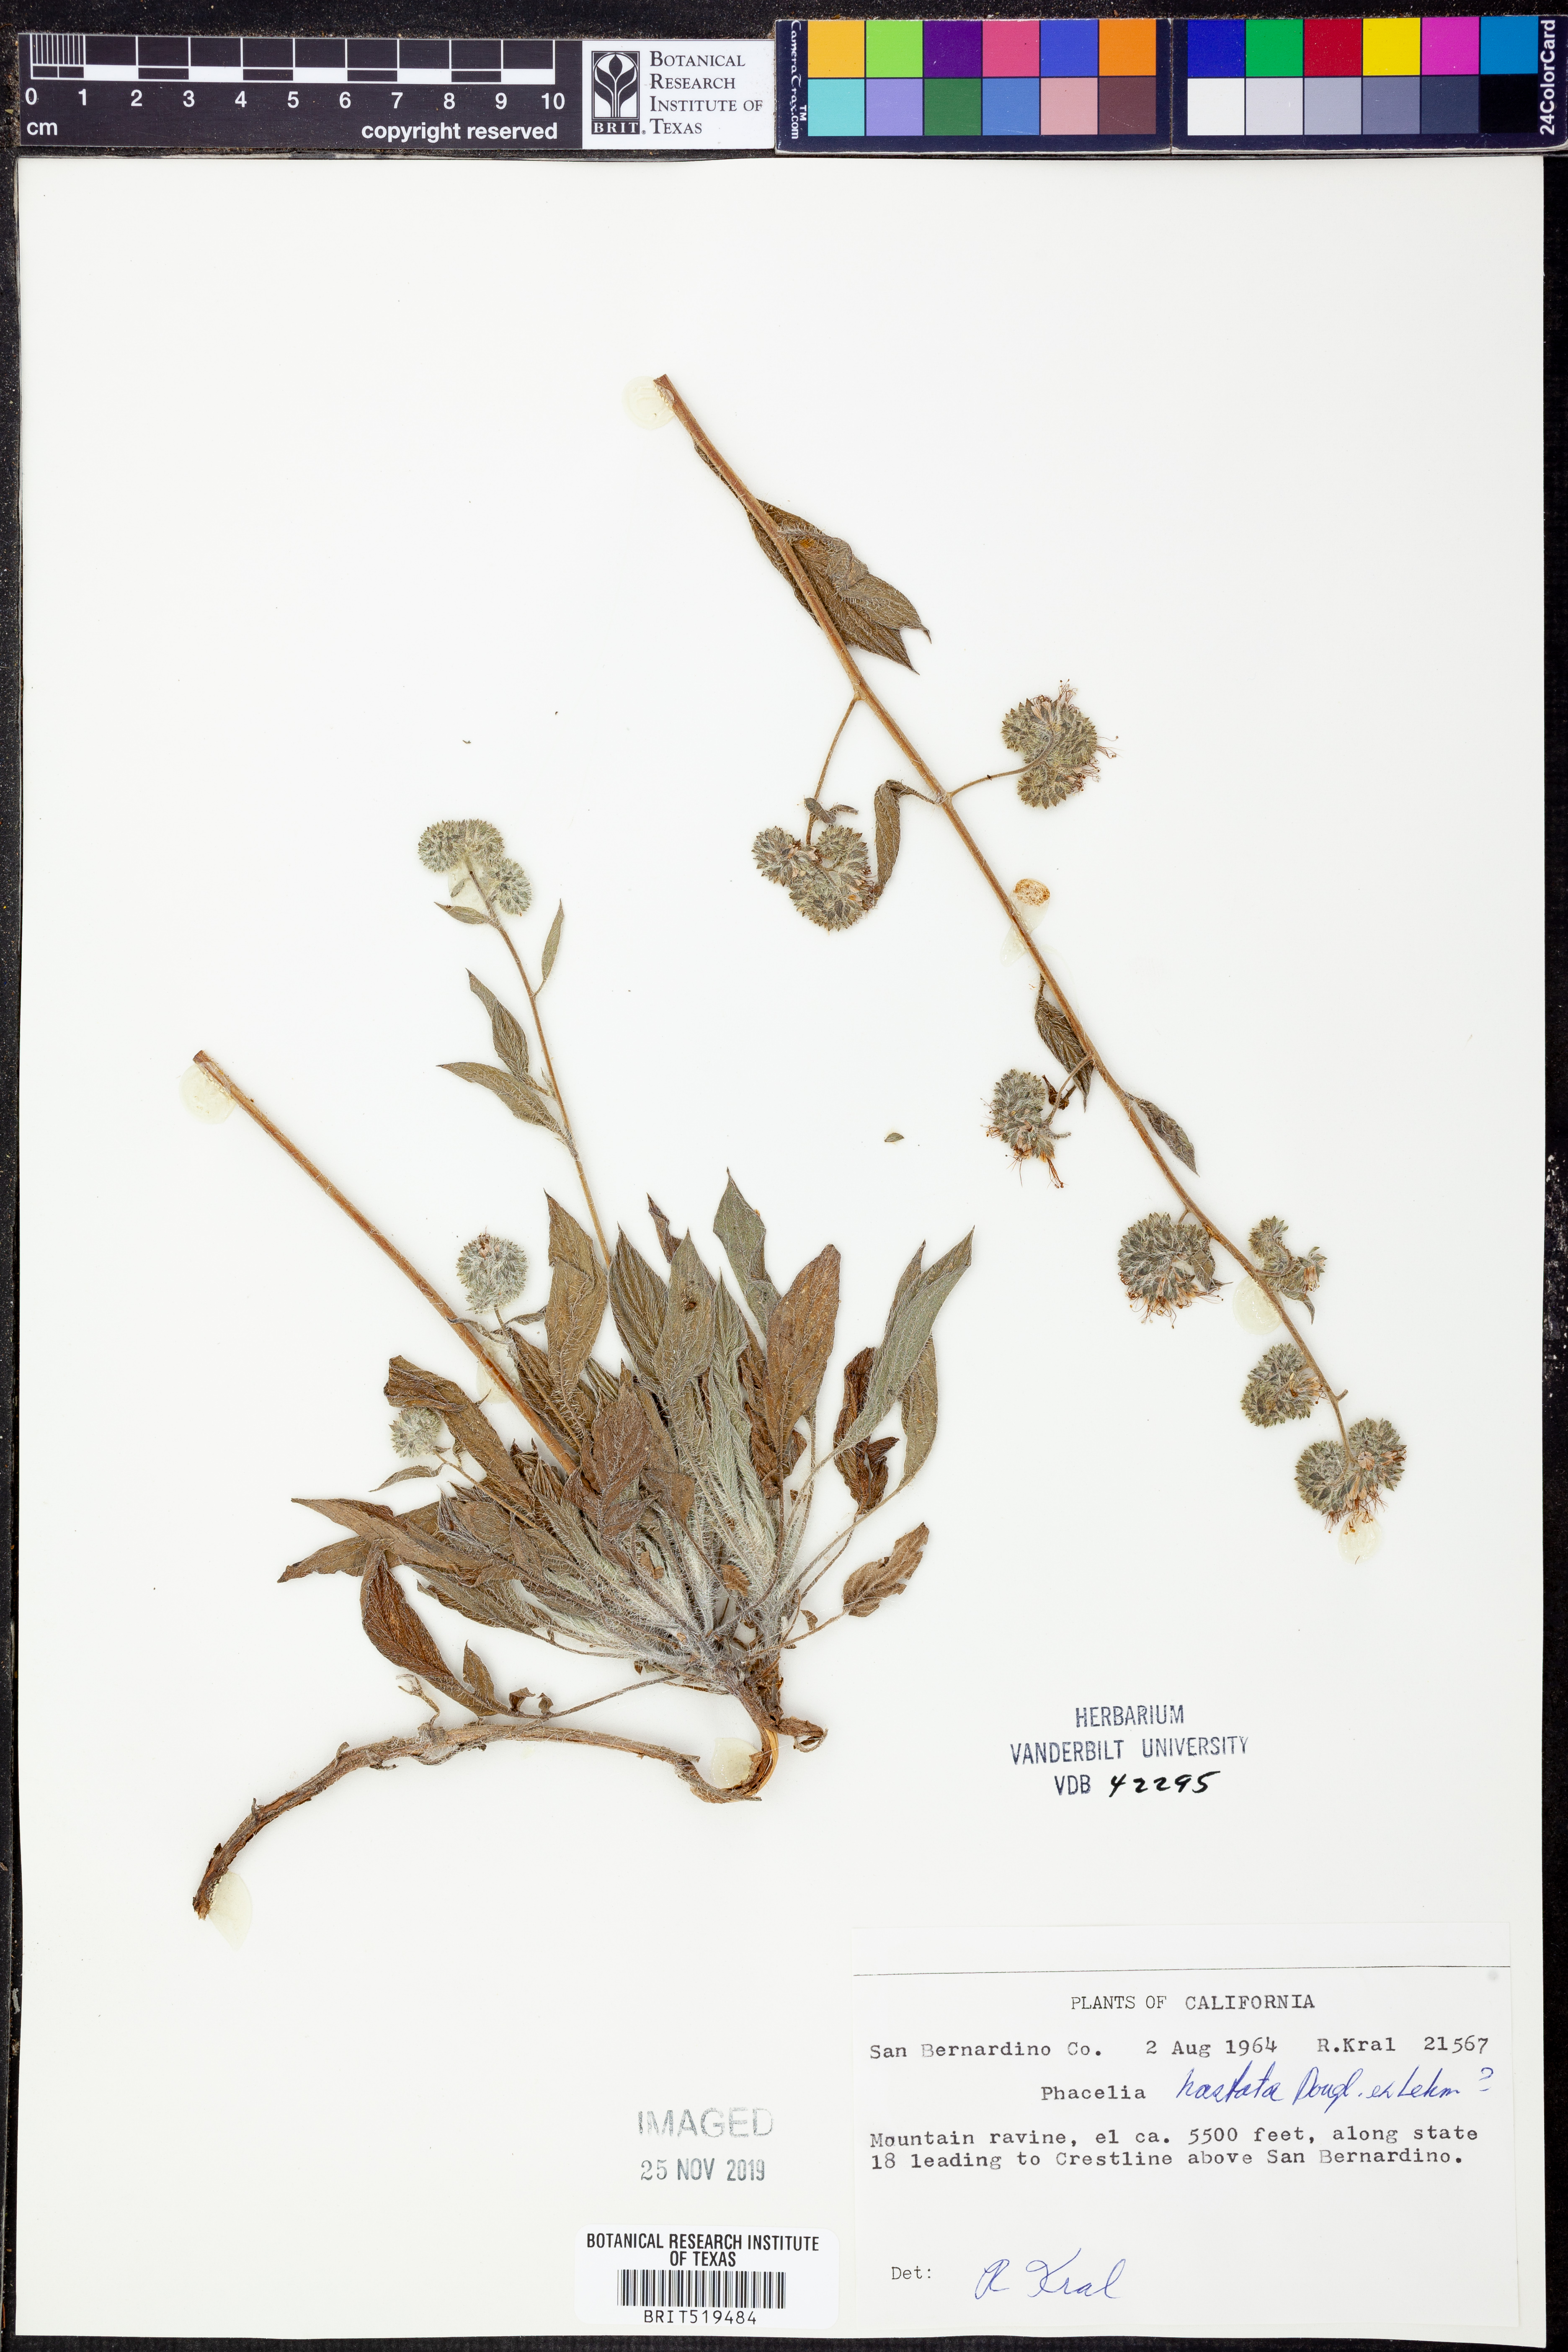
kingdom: Plantae
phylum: Tracheophyta
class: Magnoliopsida
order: Boraginales
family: Hydrophyllaceae
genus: Phacelia
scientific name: Phacelia hastata
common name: Silver-leaved phacelia
